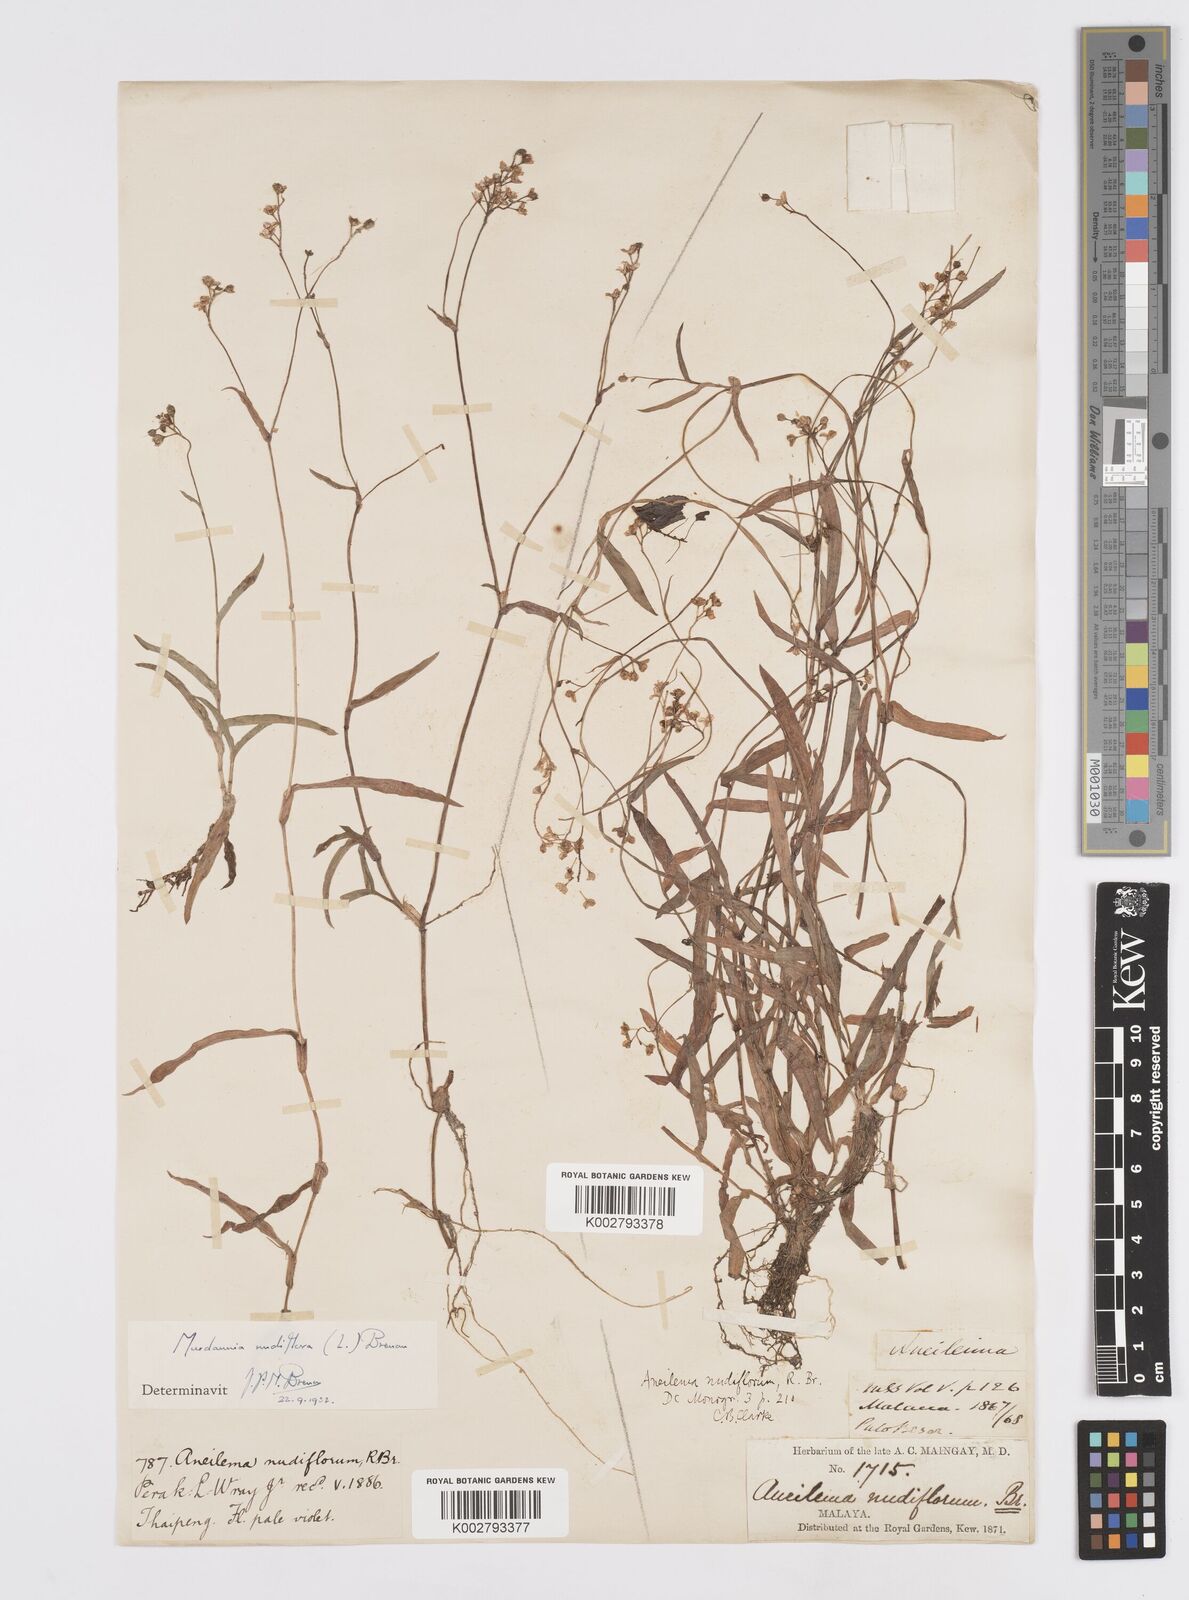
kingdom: Plantae
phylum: Tracheophyta
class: Liliopsida
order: Commelinales
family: Commelinaceae
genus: Murdannia
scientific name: Murdannia
